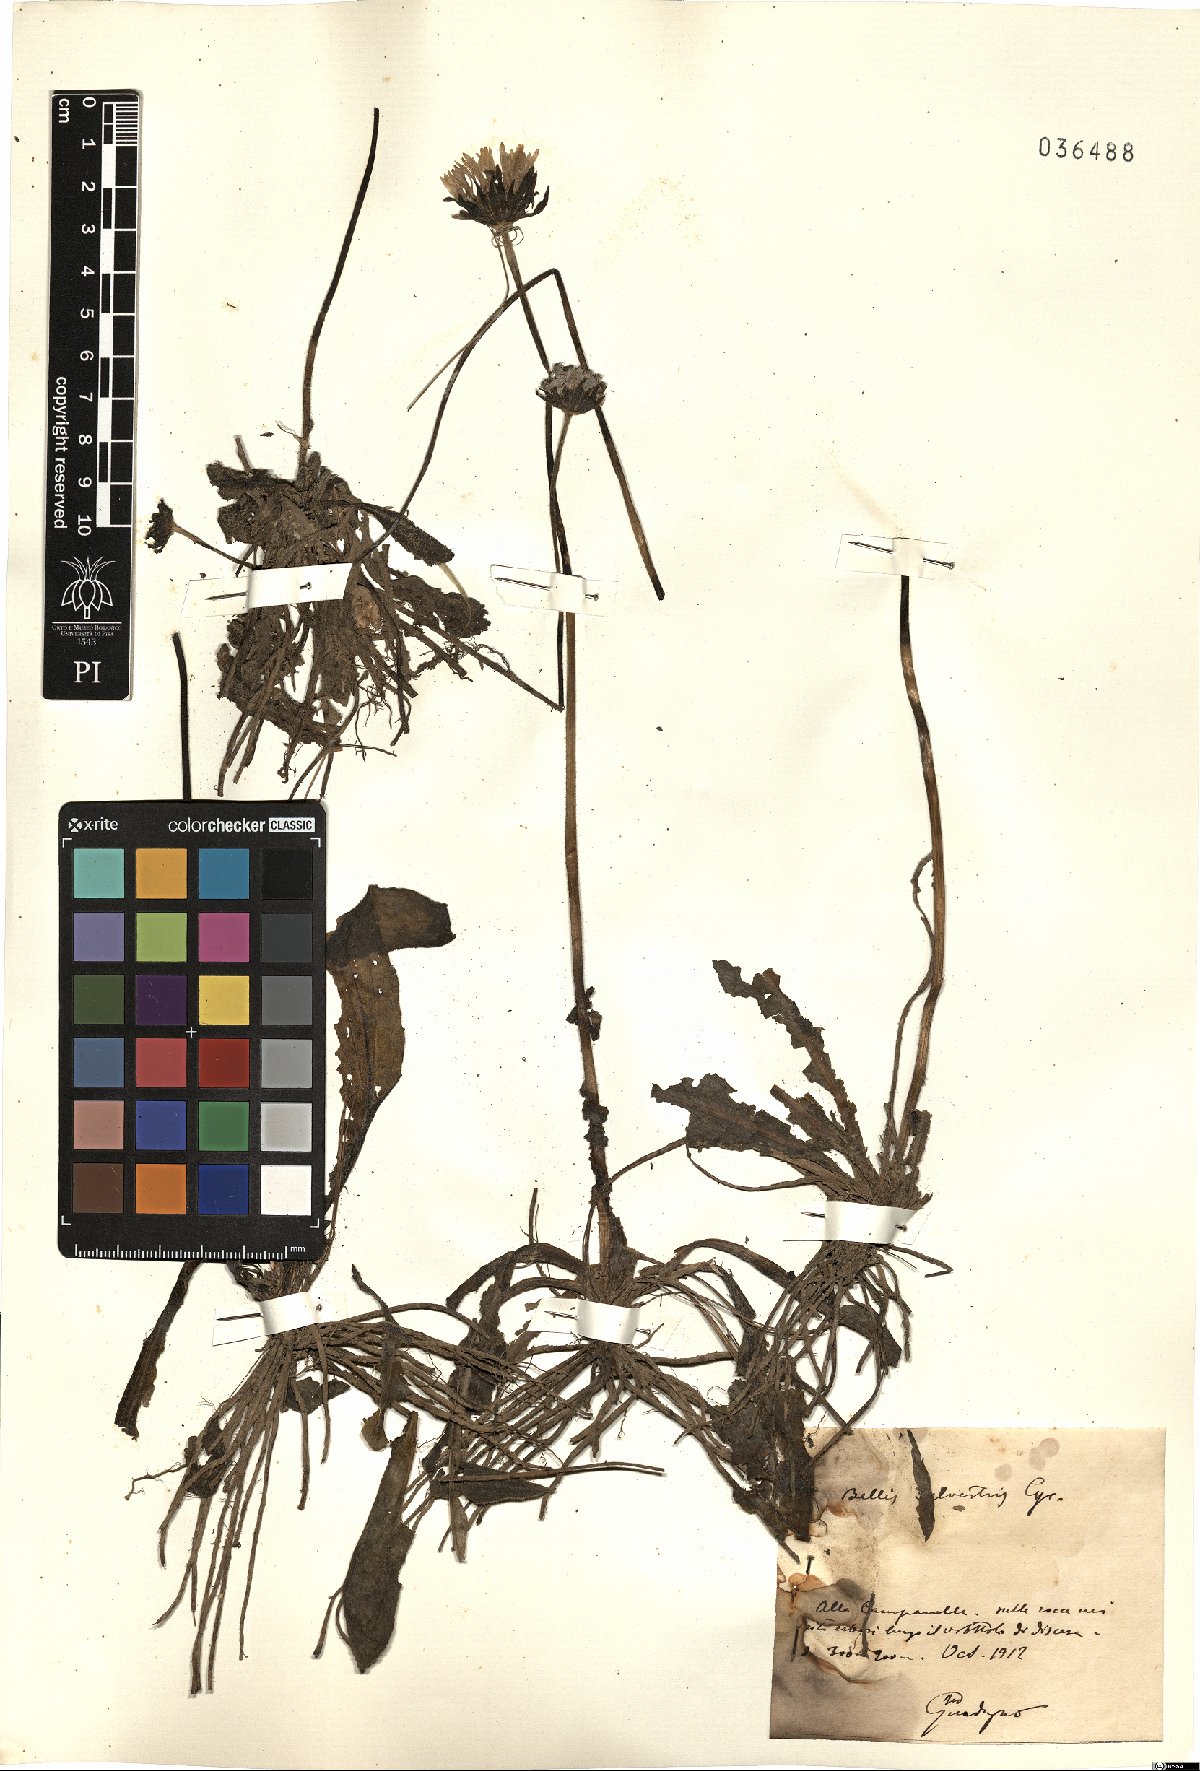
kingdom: Plantae
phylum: Tracheophyta
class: Magnoliopsida
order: Asterales
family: Asteraceae
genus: Bellis
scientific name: Bellis sylvestris
